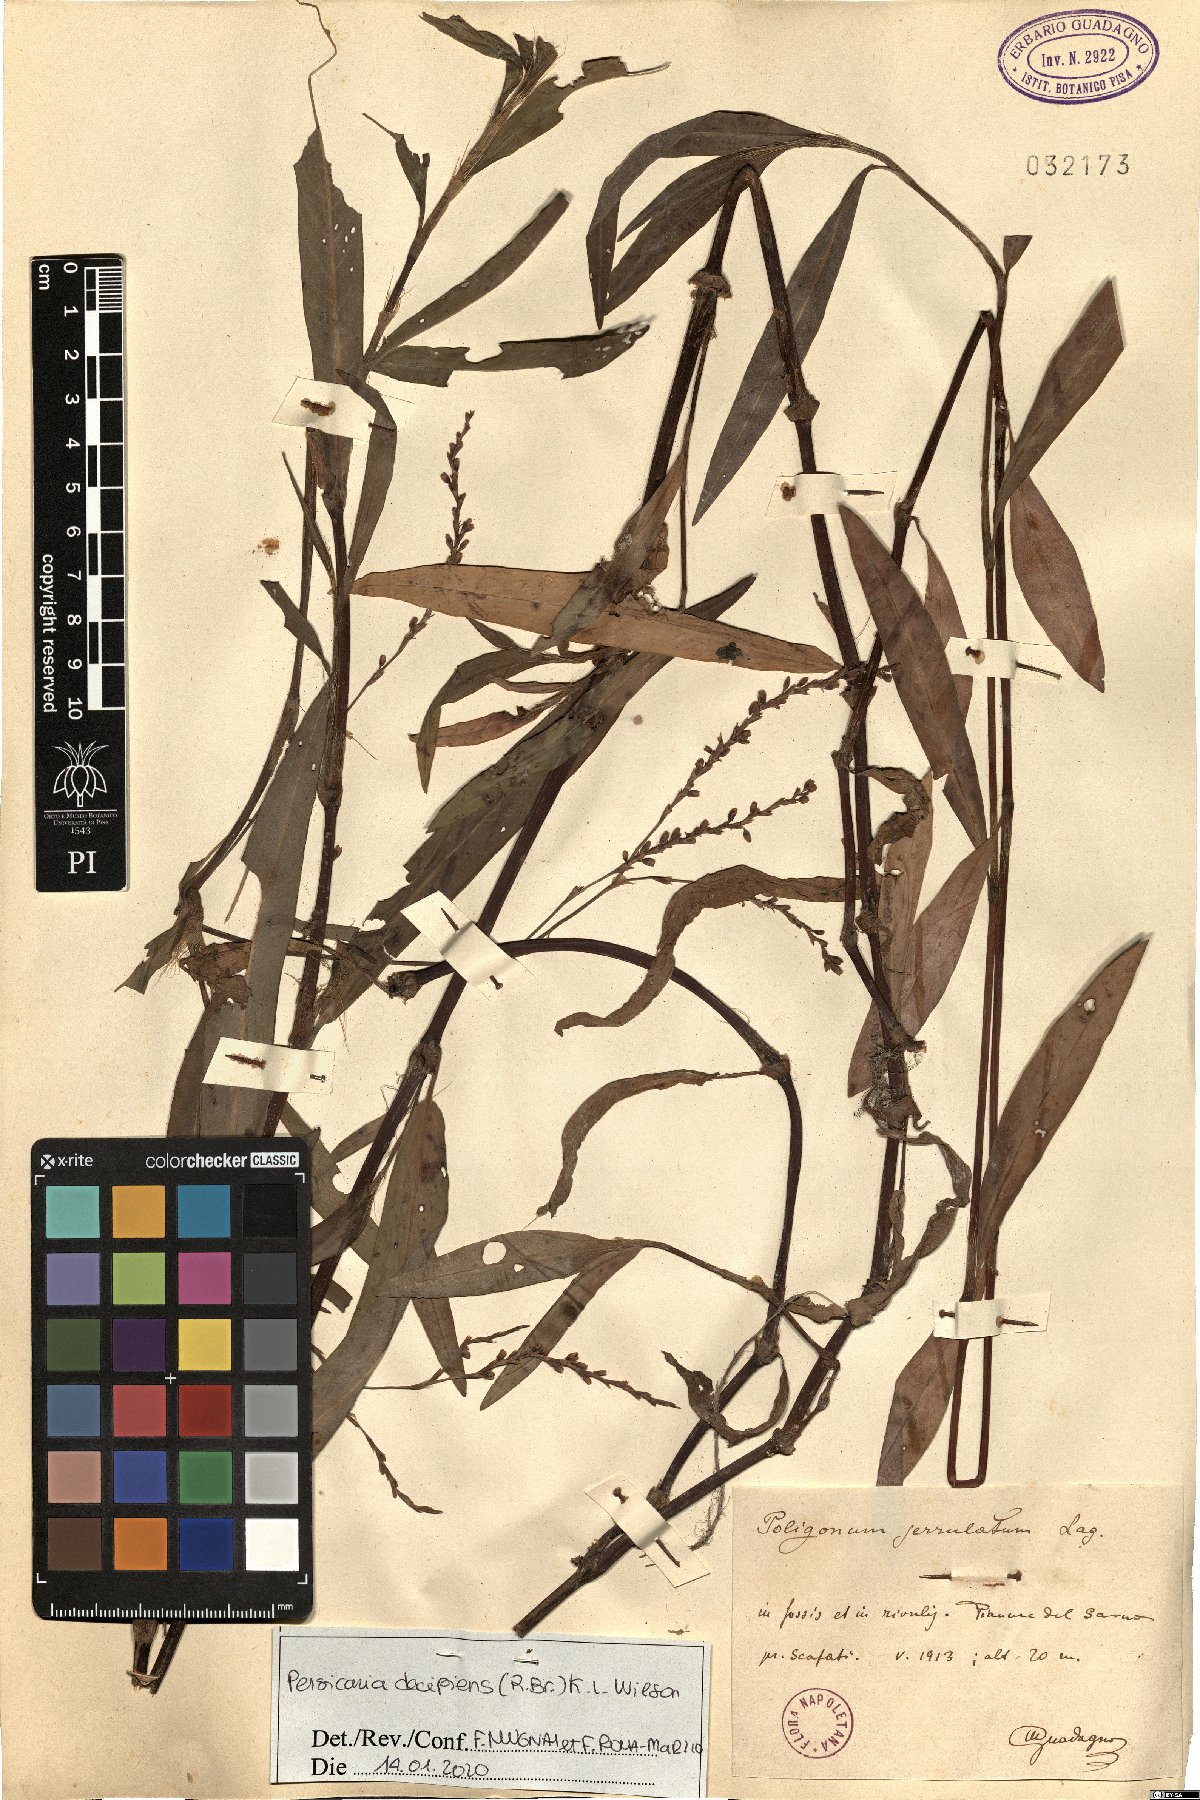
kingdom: Plantae
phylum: Tracheophyta
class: Magnoliopsida
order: Caryophyllales
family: Polygonaceae
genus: Persicaria
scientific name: Persicaria decipiens
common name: Willow-weed
